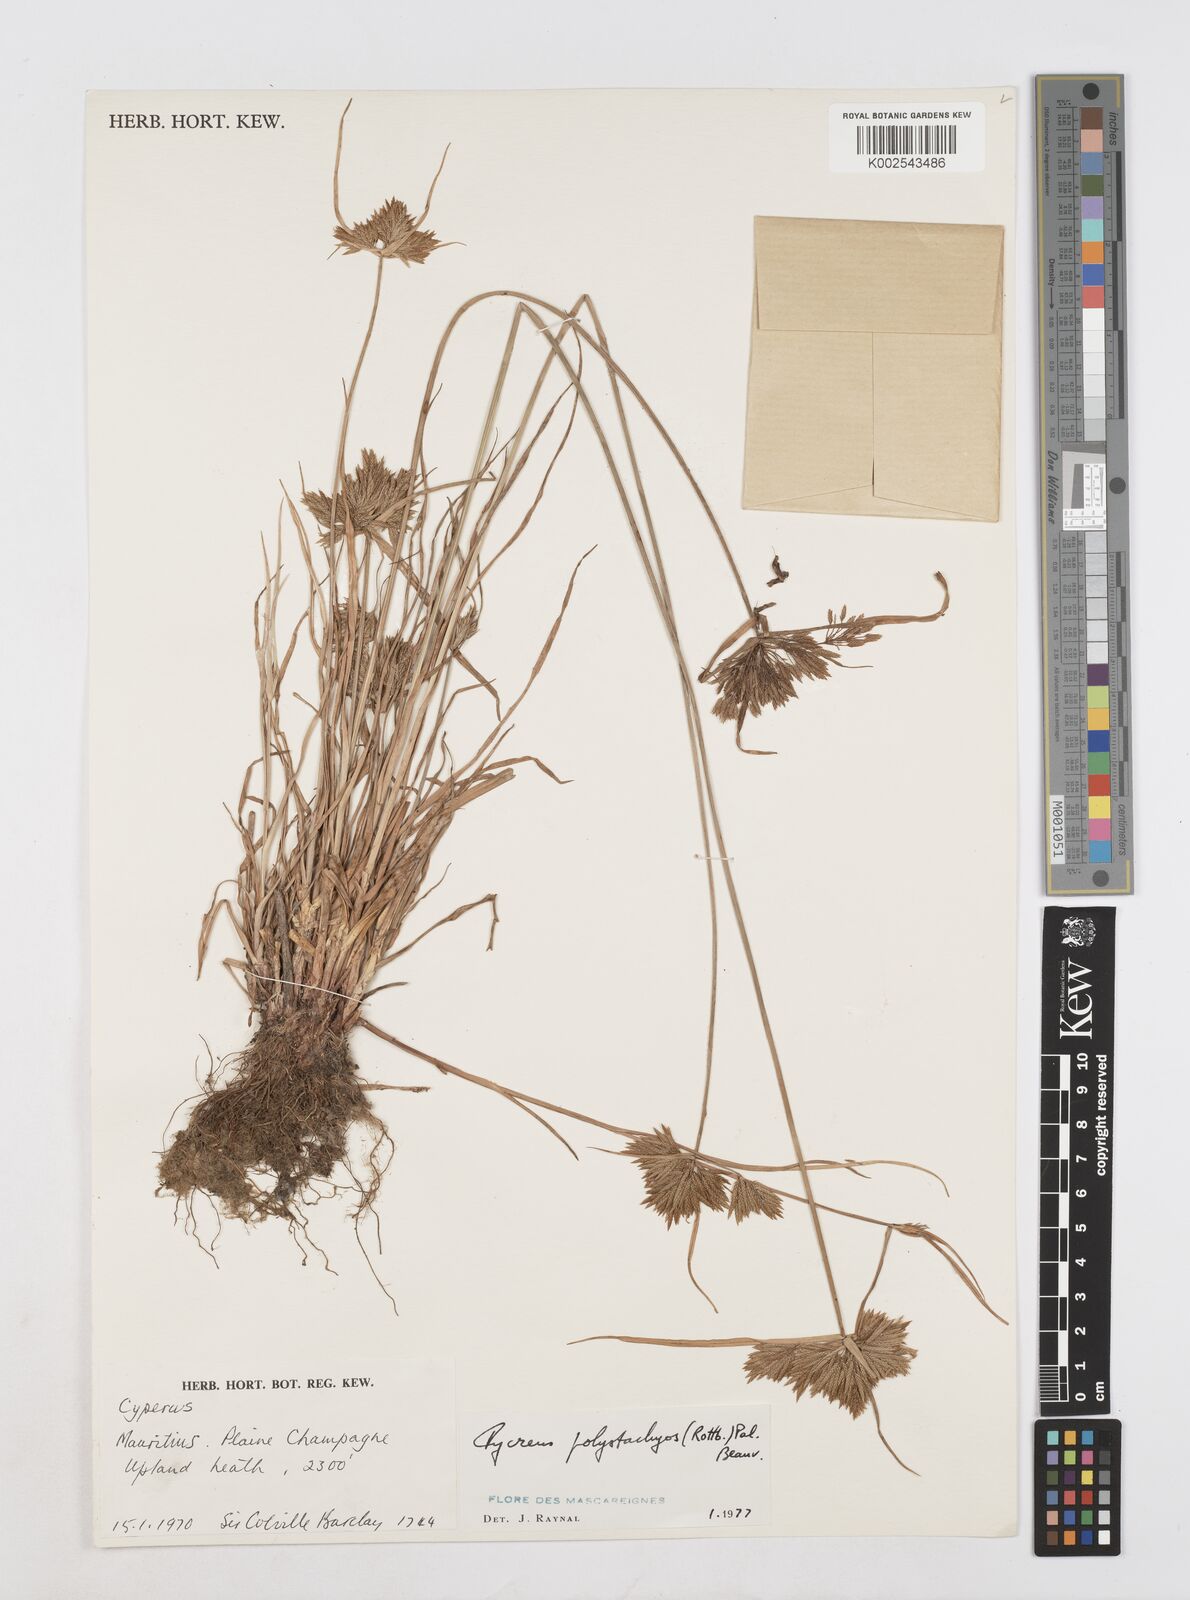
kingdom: Plantae
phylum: Tracheophyta
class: Liliopsida
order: Poales
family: Cyperaceae
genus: Cyperus
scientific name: Cyperus polystachyos
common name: Bunchy flat sedge
